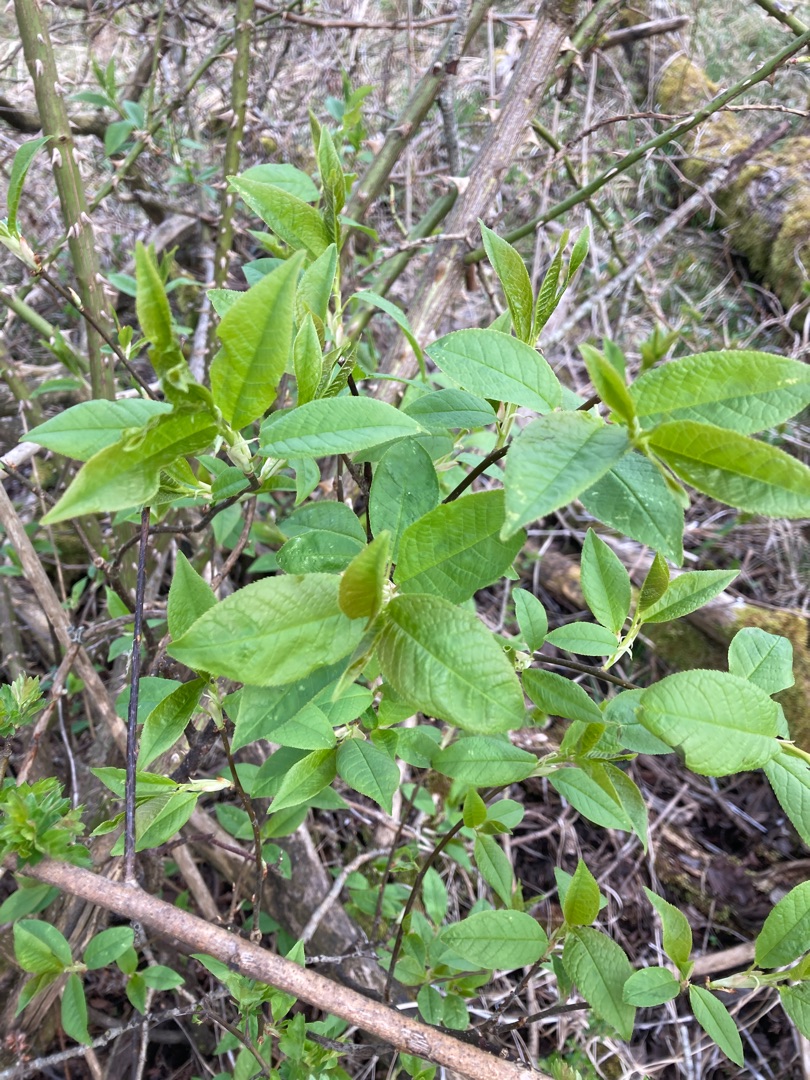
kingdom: Plantae
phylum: Tracheophyta
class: Magnoliopsida
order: Rosales
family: Rosaceae
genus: Prunus
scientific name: Prunus padus
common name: Almindelig hæg
